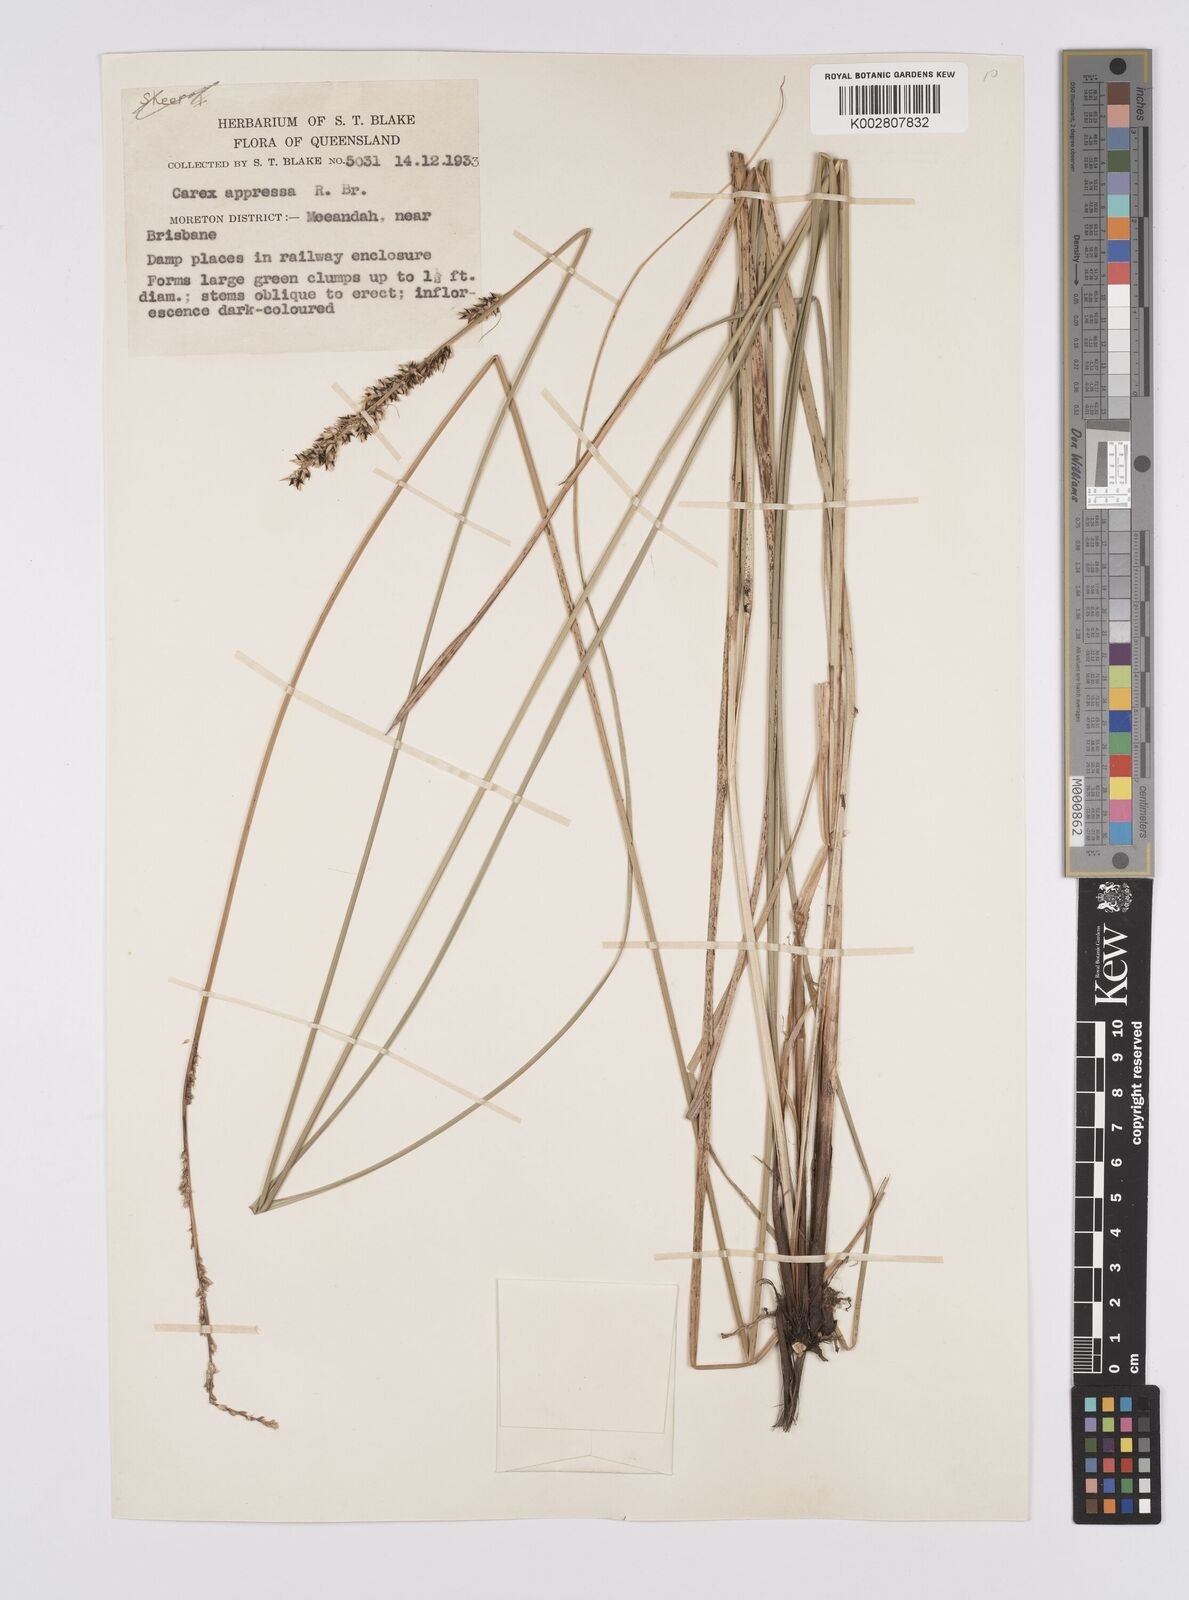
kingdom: Plantae
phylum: Tracheophyta
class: Liliopsida
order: Poales
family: Cyperaceae
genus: Carex
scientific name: Carex appressa
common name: Tussock sedge
